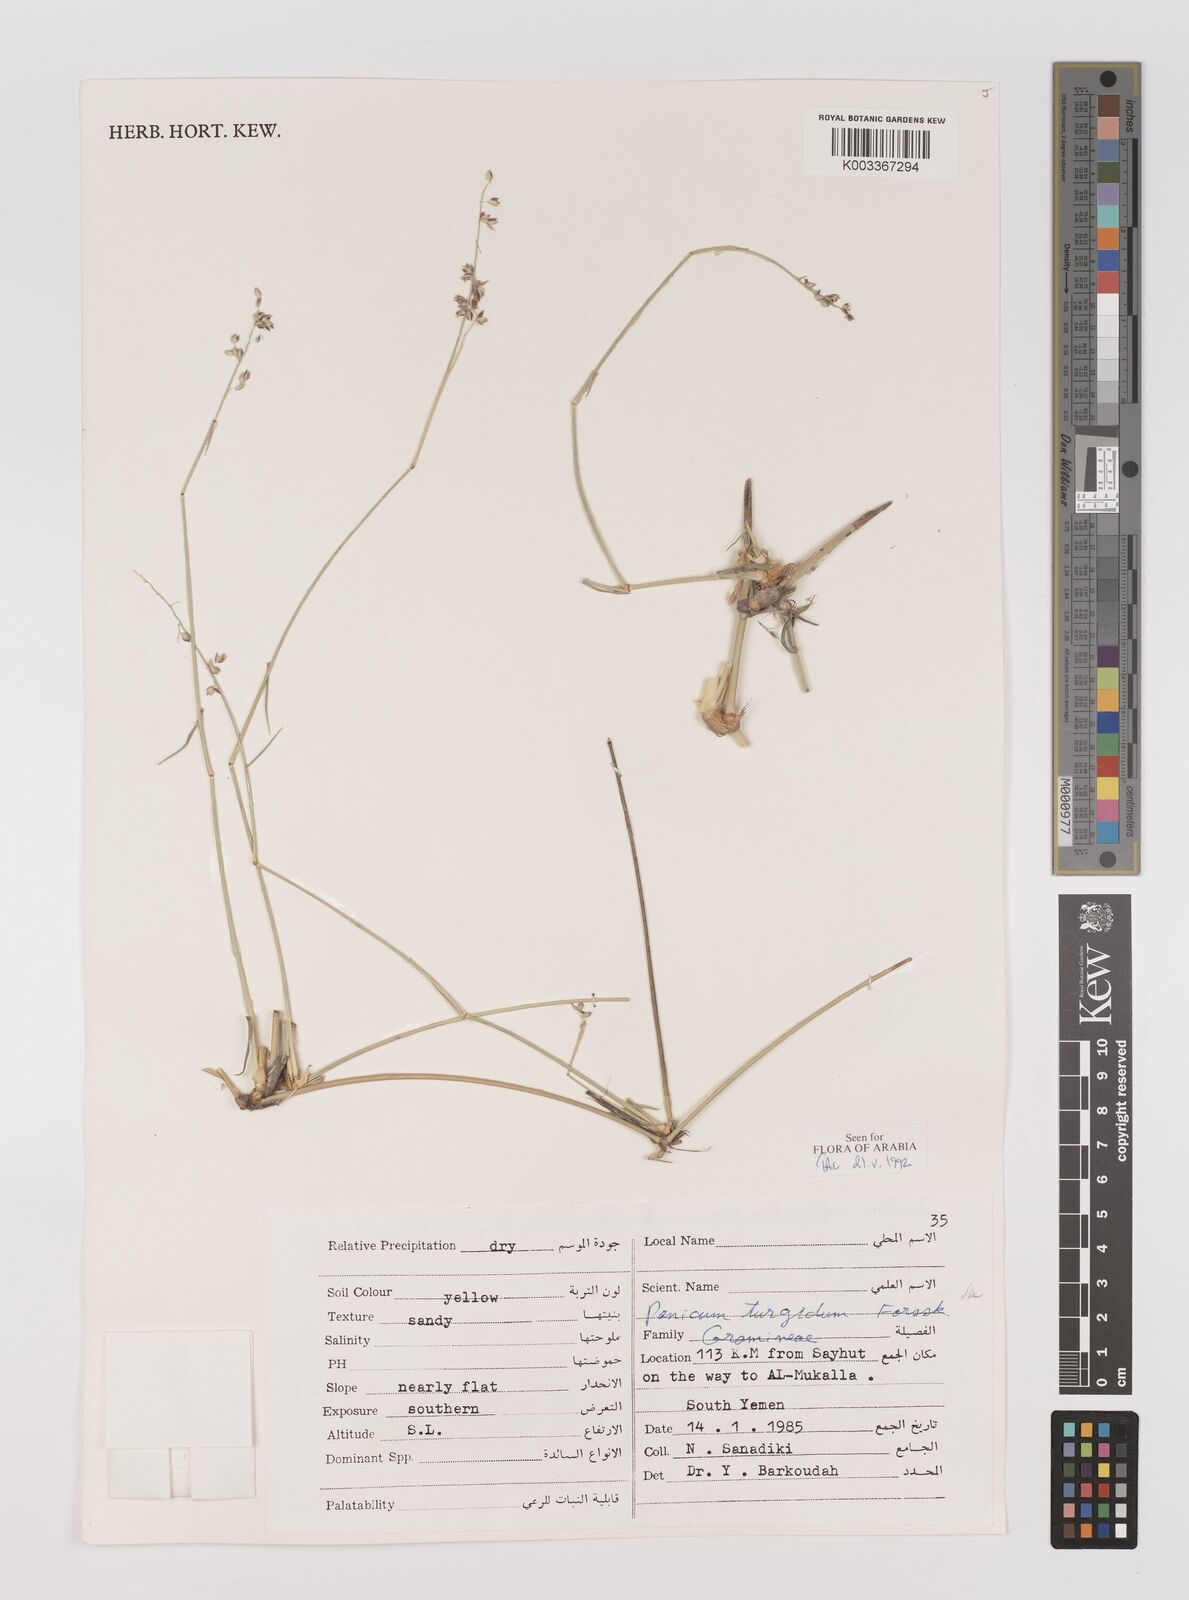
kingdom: Plantae
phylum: Tracheophyta
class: Liliopsida
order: Poales
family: Poaceae
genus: Panicum
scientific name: Panicum turgidum
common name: Desert grass
